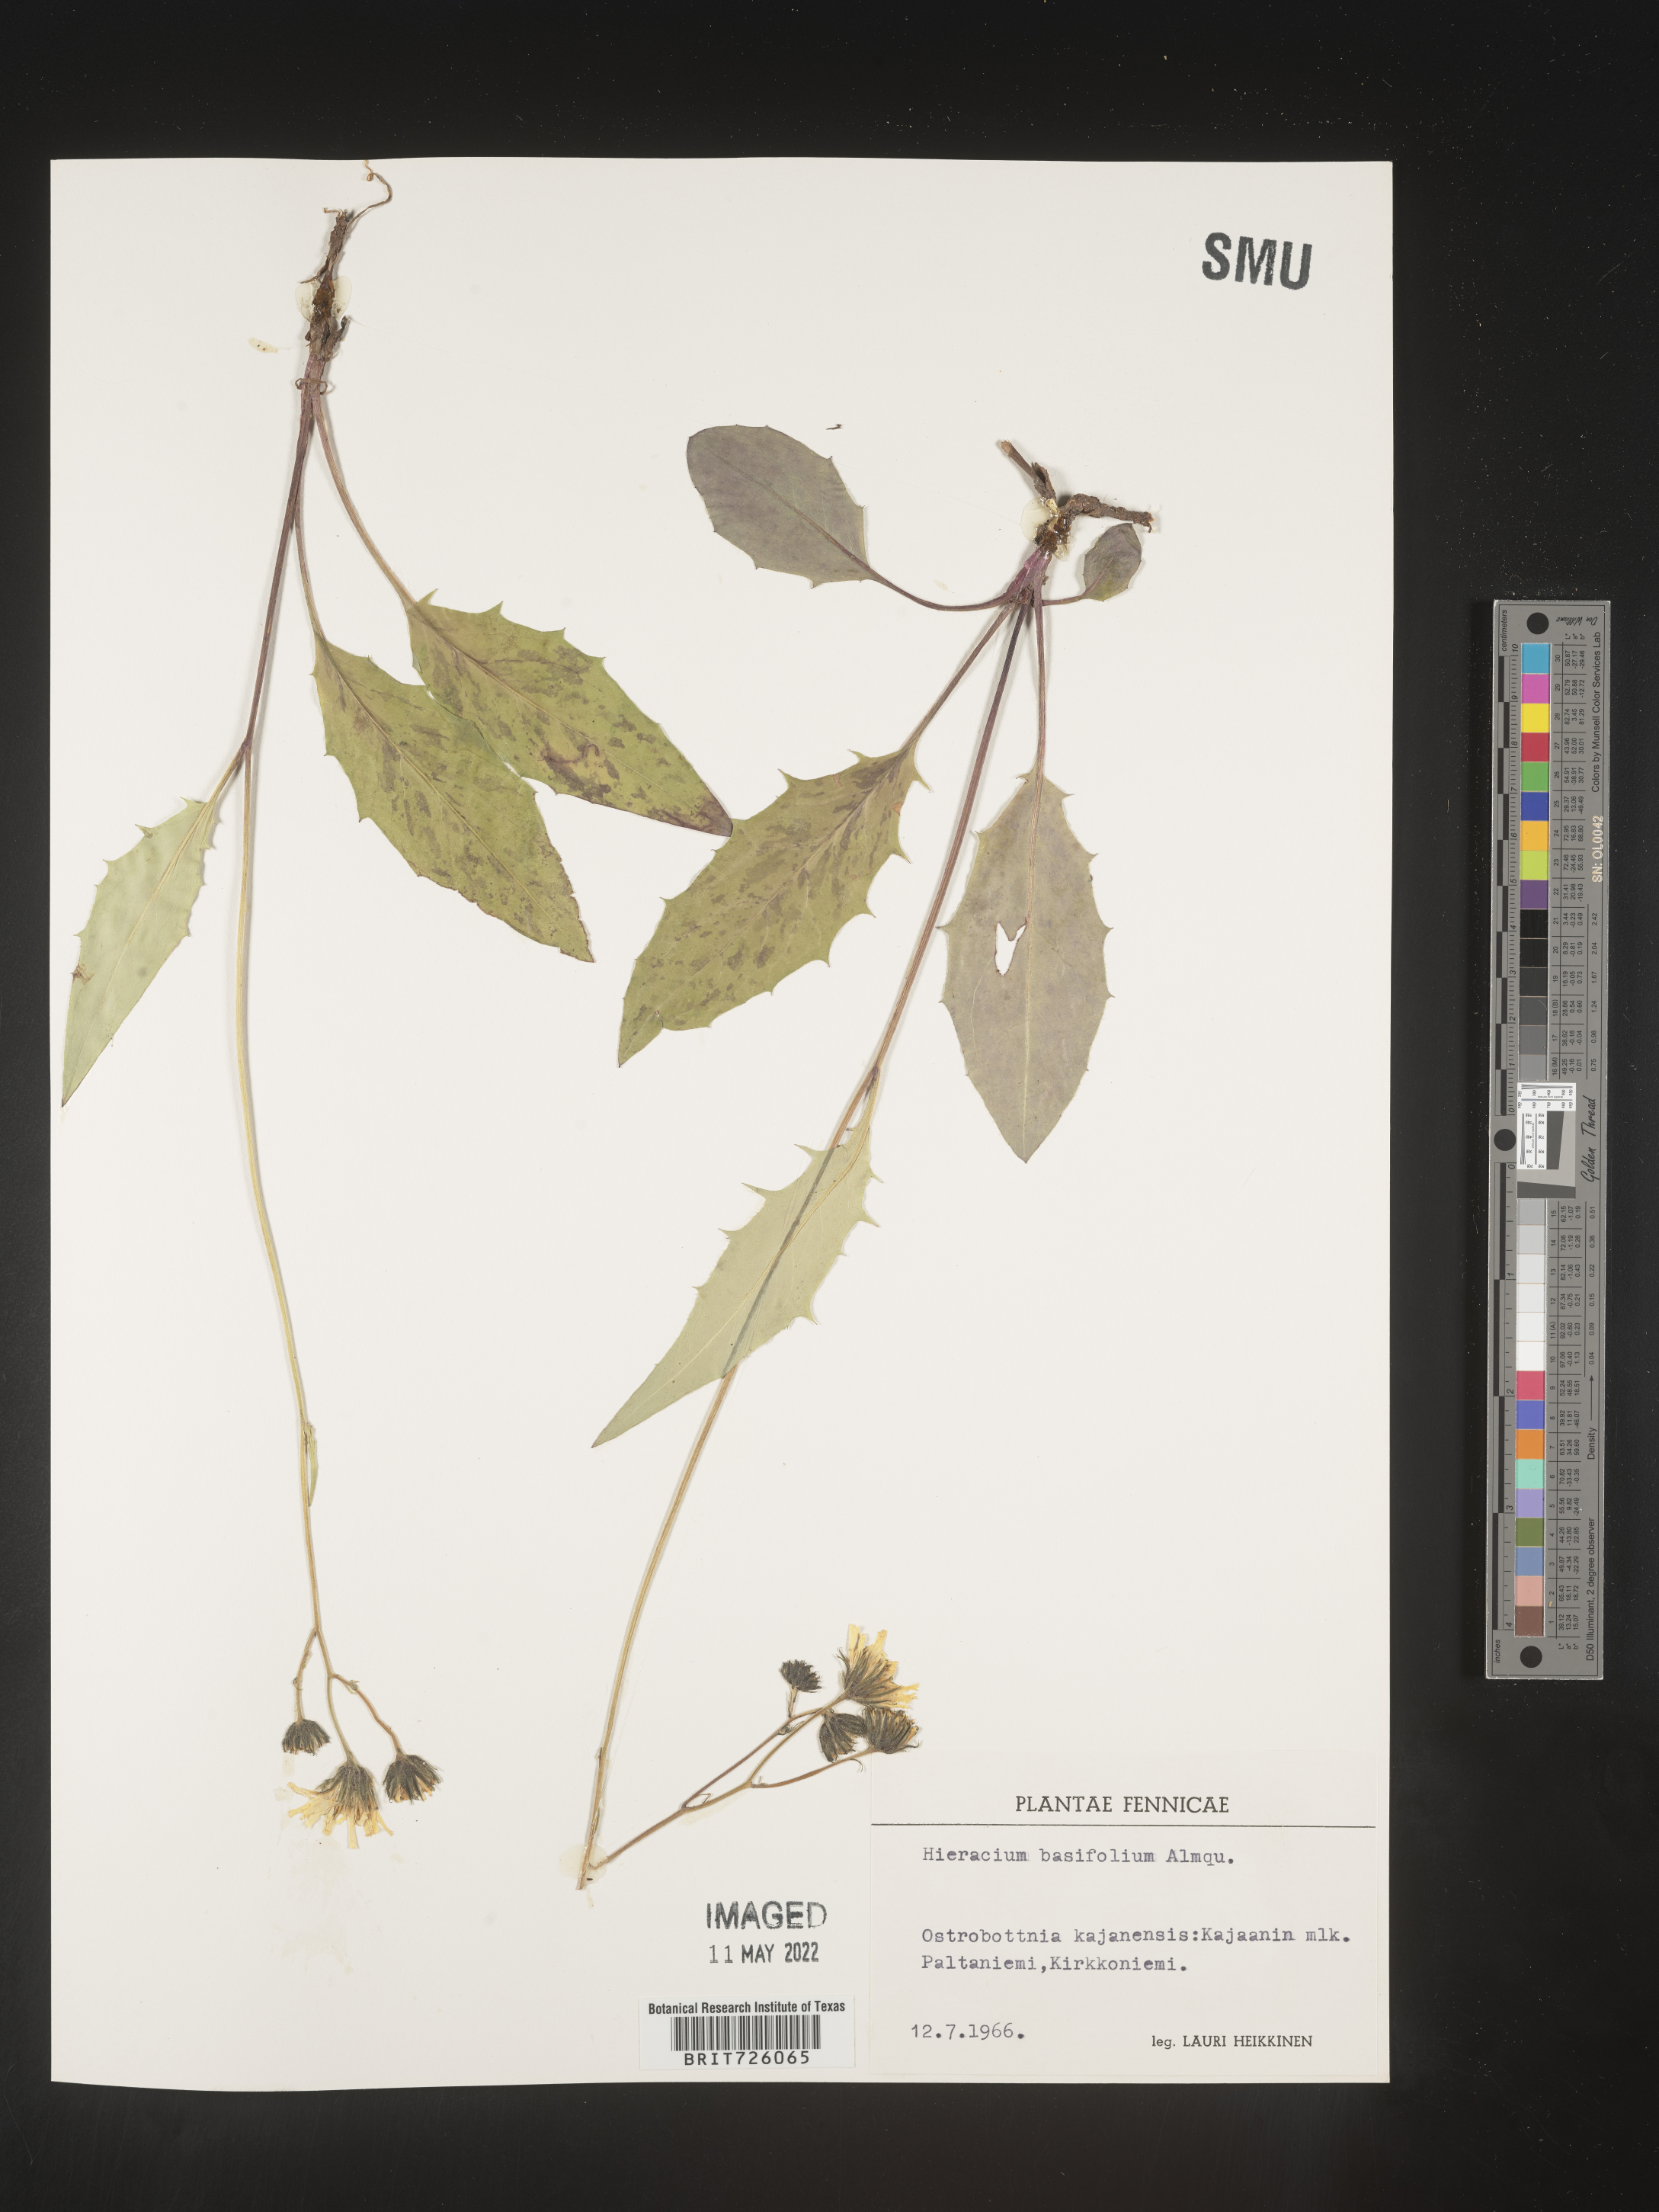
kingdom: Plantae
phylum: Tracheophyta
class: Magnoliopsida
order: Asterales
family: Asteraceae
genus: Hieracium
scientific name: Hieracium
